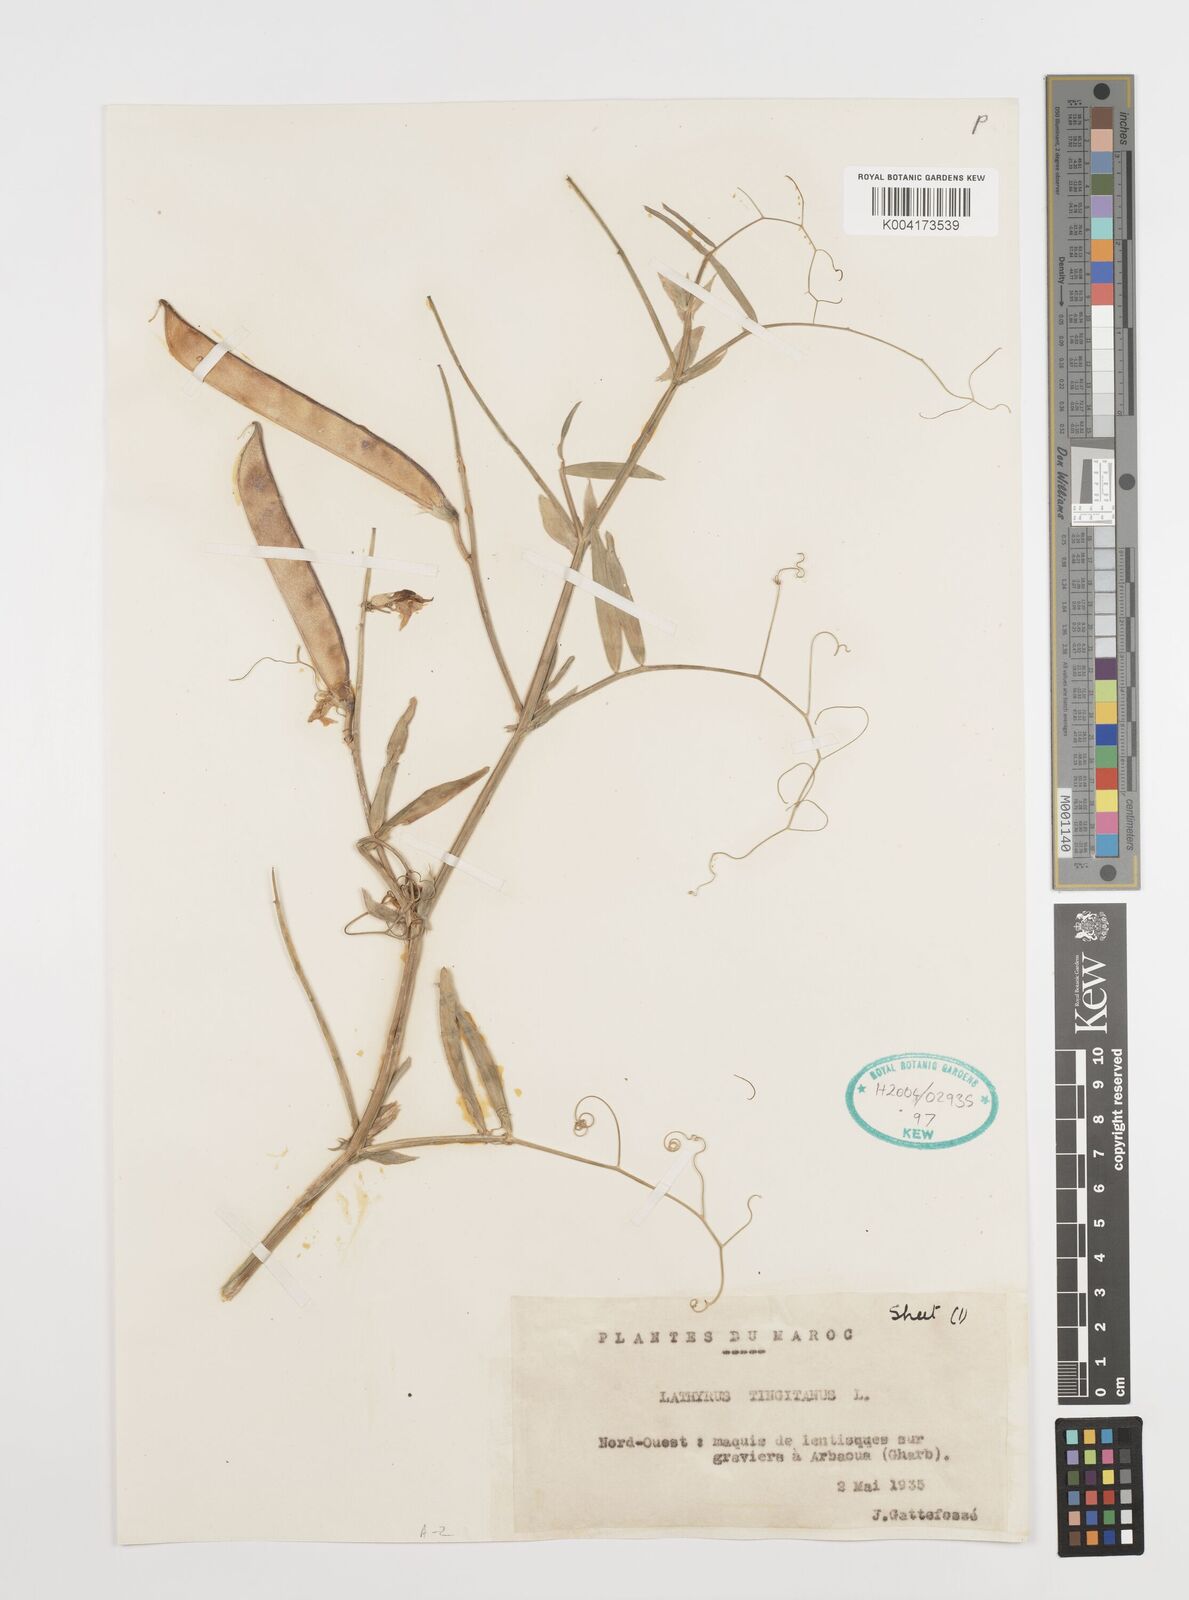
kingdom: Plantae
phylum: Tracheophyta
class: Magnoliopsida
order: Fabales
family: Fabaceae
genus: Lathyrus
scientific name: Lathyrus tingitanus
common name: Tangier pea
